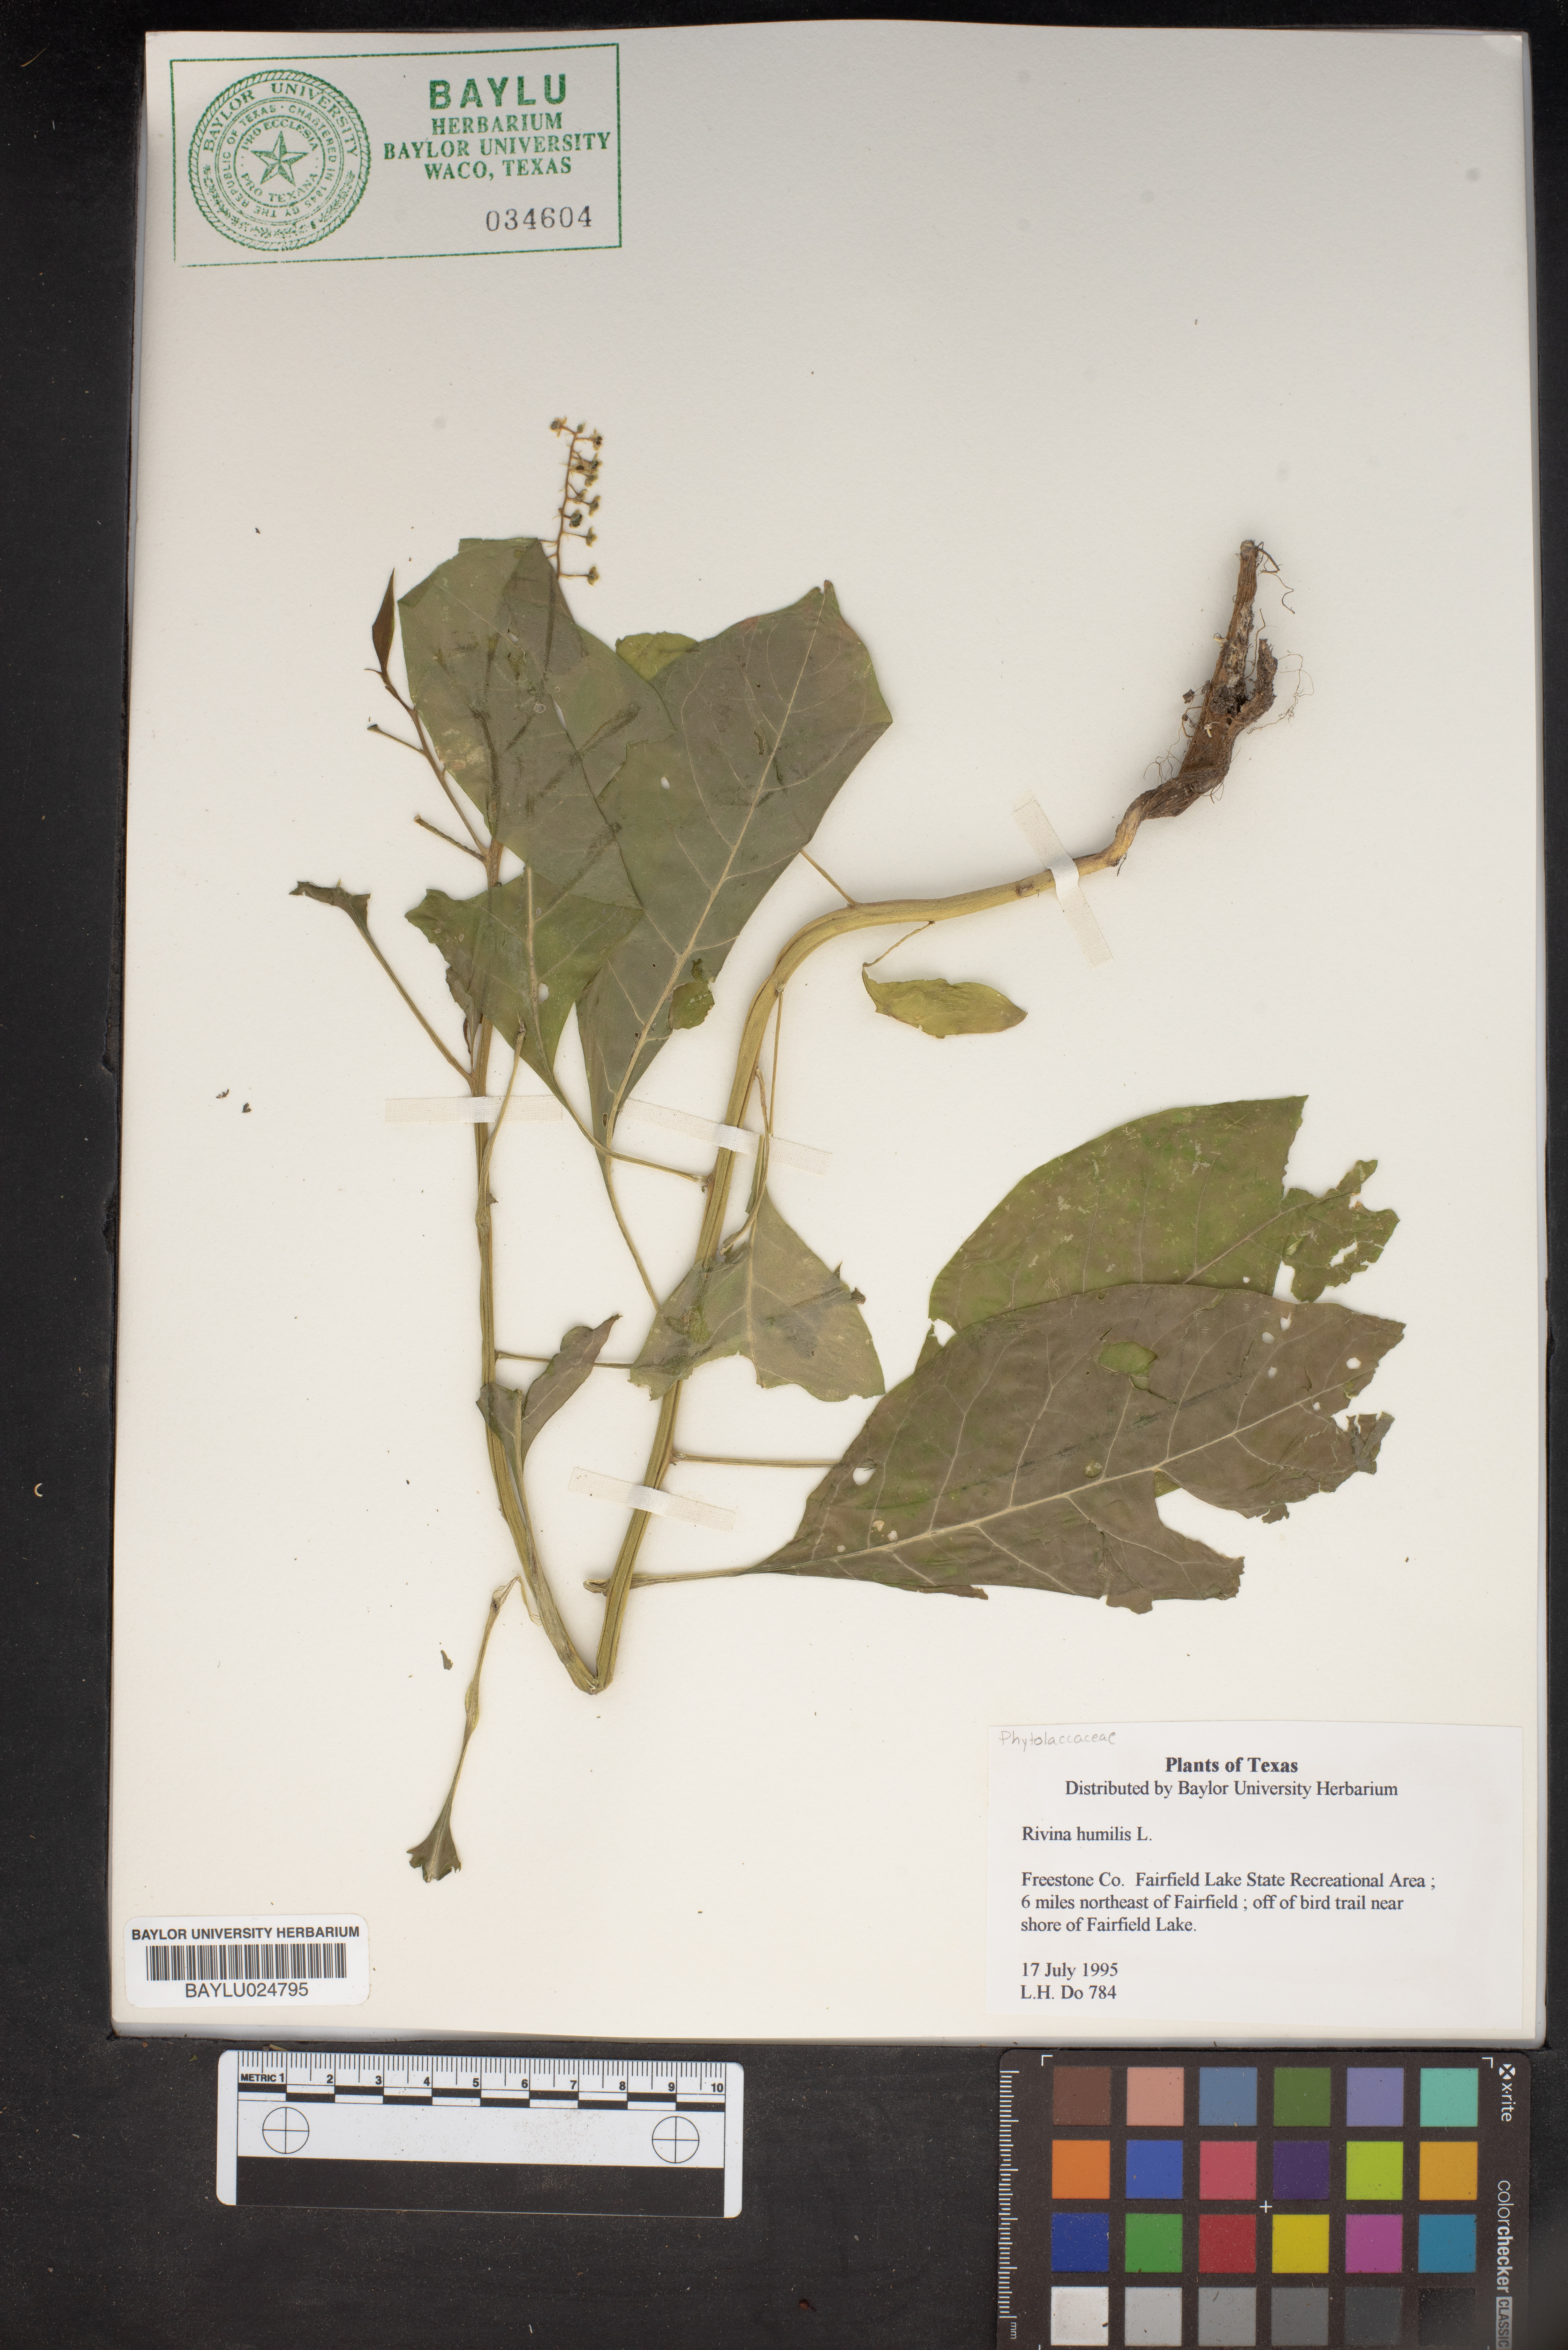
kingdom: Plantae
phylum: Tracheophyta
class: Magnoliopsida
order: Caryophyllales
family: Phytolaccaceae
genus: Rivina
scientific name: Rivina humilis
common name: Rougeplant
